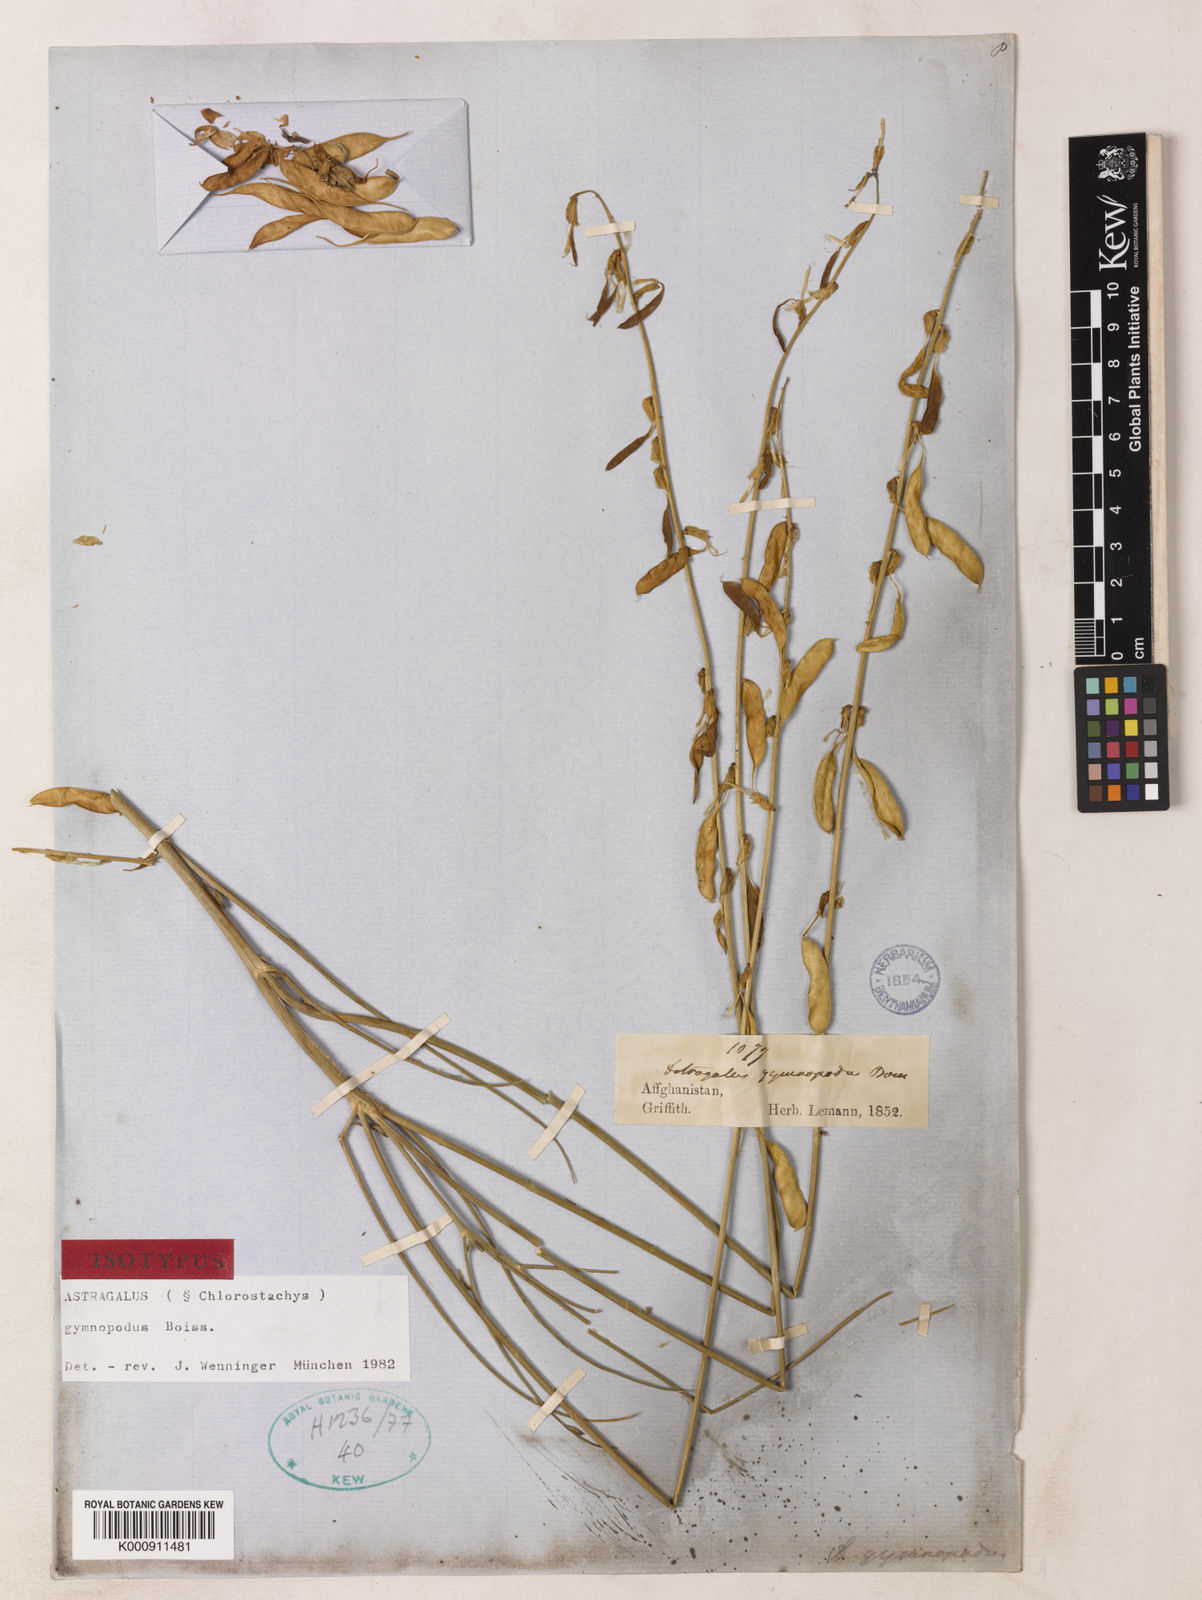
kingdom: Plantae
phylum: Tracheophyta
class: Magnoliopsida
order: Fabales
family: Fabaceae
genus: Astragalus
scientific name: Astragalus gymnopodus
